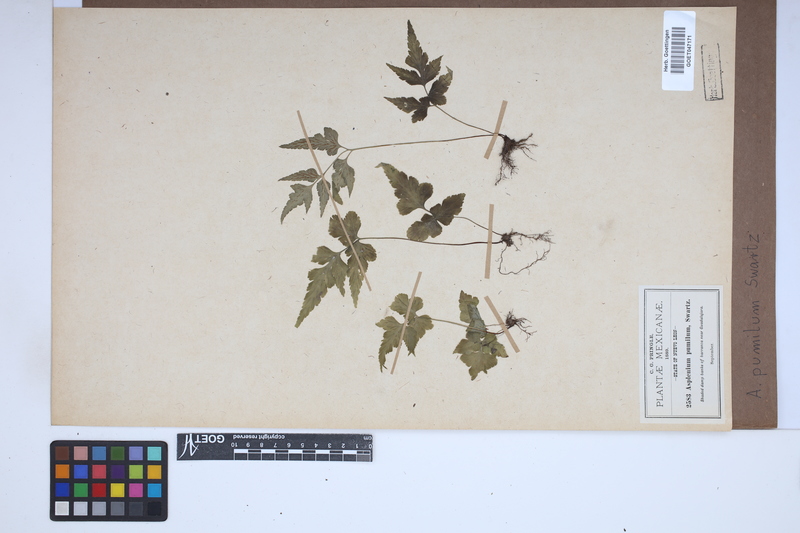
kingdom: Plantae
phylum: Tracheophyta
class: Polypodiopsida
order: Polypodiales
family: Aspleniaceae
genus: Asplenium
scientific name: Asplenium pumilum
